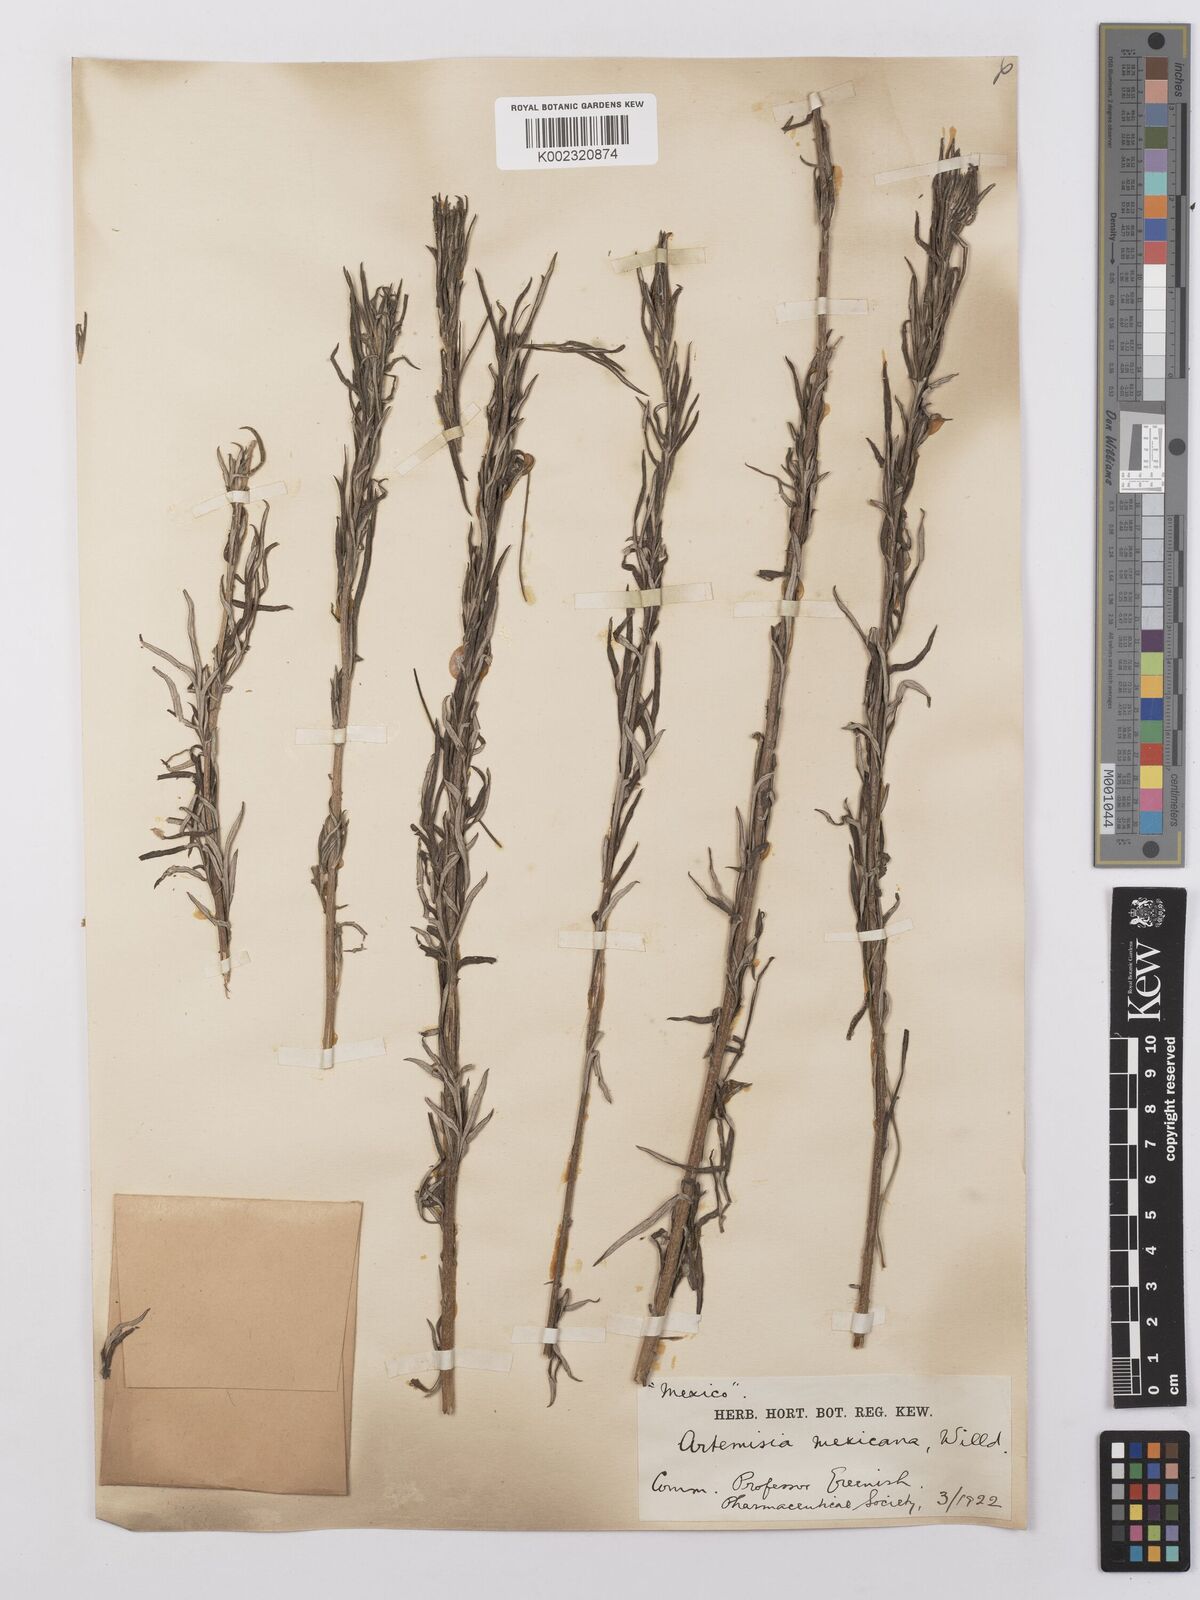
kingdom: Plantae
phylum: Tracheophyta
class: Magnoliopsida
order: Asterales
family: Asteraceae
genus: Artemisia
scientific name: Artemisia ludoviciana
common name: Western mugwort
